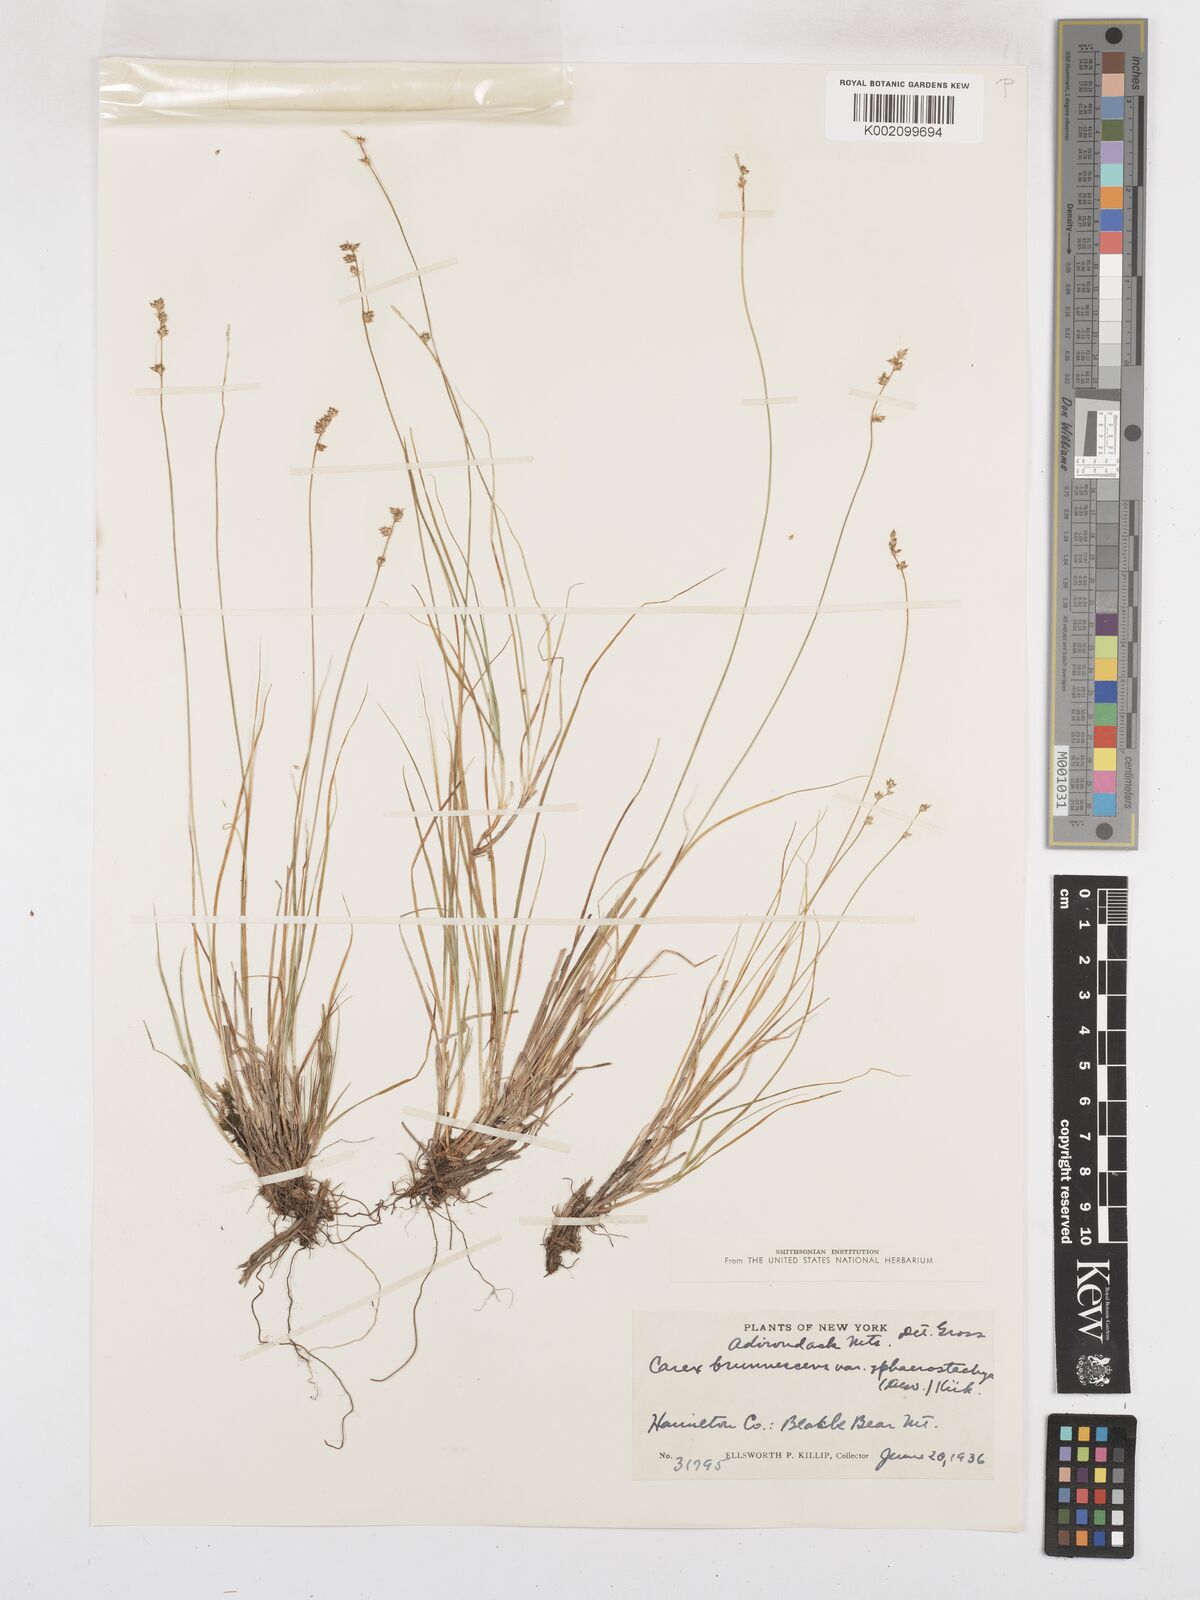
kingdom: Plantae
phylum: Tracheophyta
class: Liliopsida
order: Poales
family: Cyperaceae
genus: Carex
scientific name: Carex brunnescens
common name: Brown sedge
